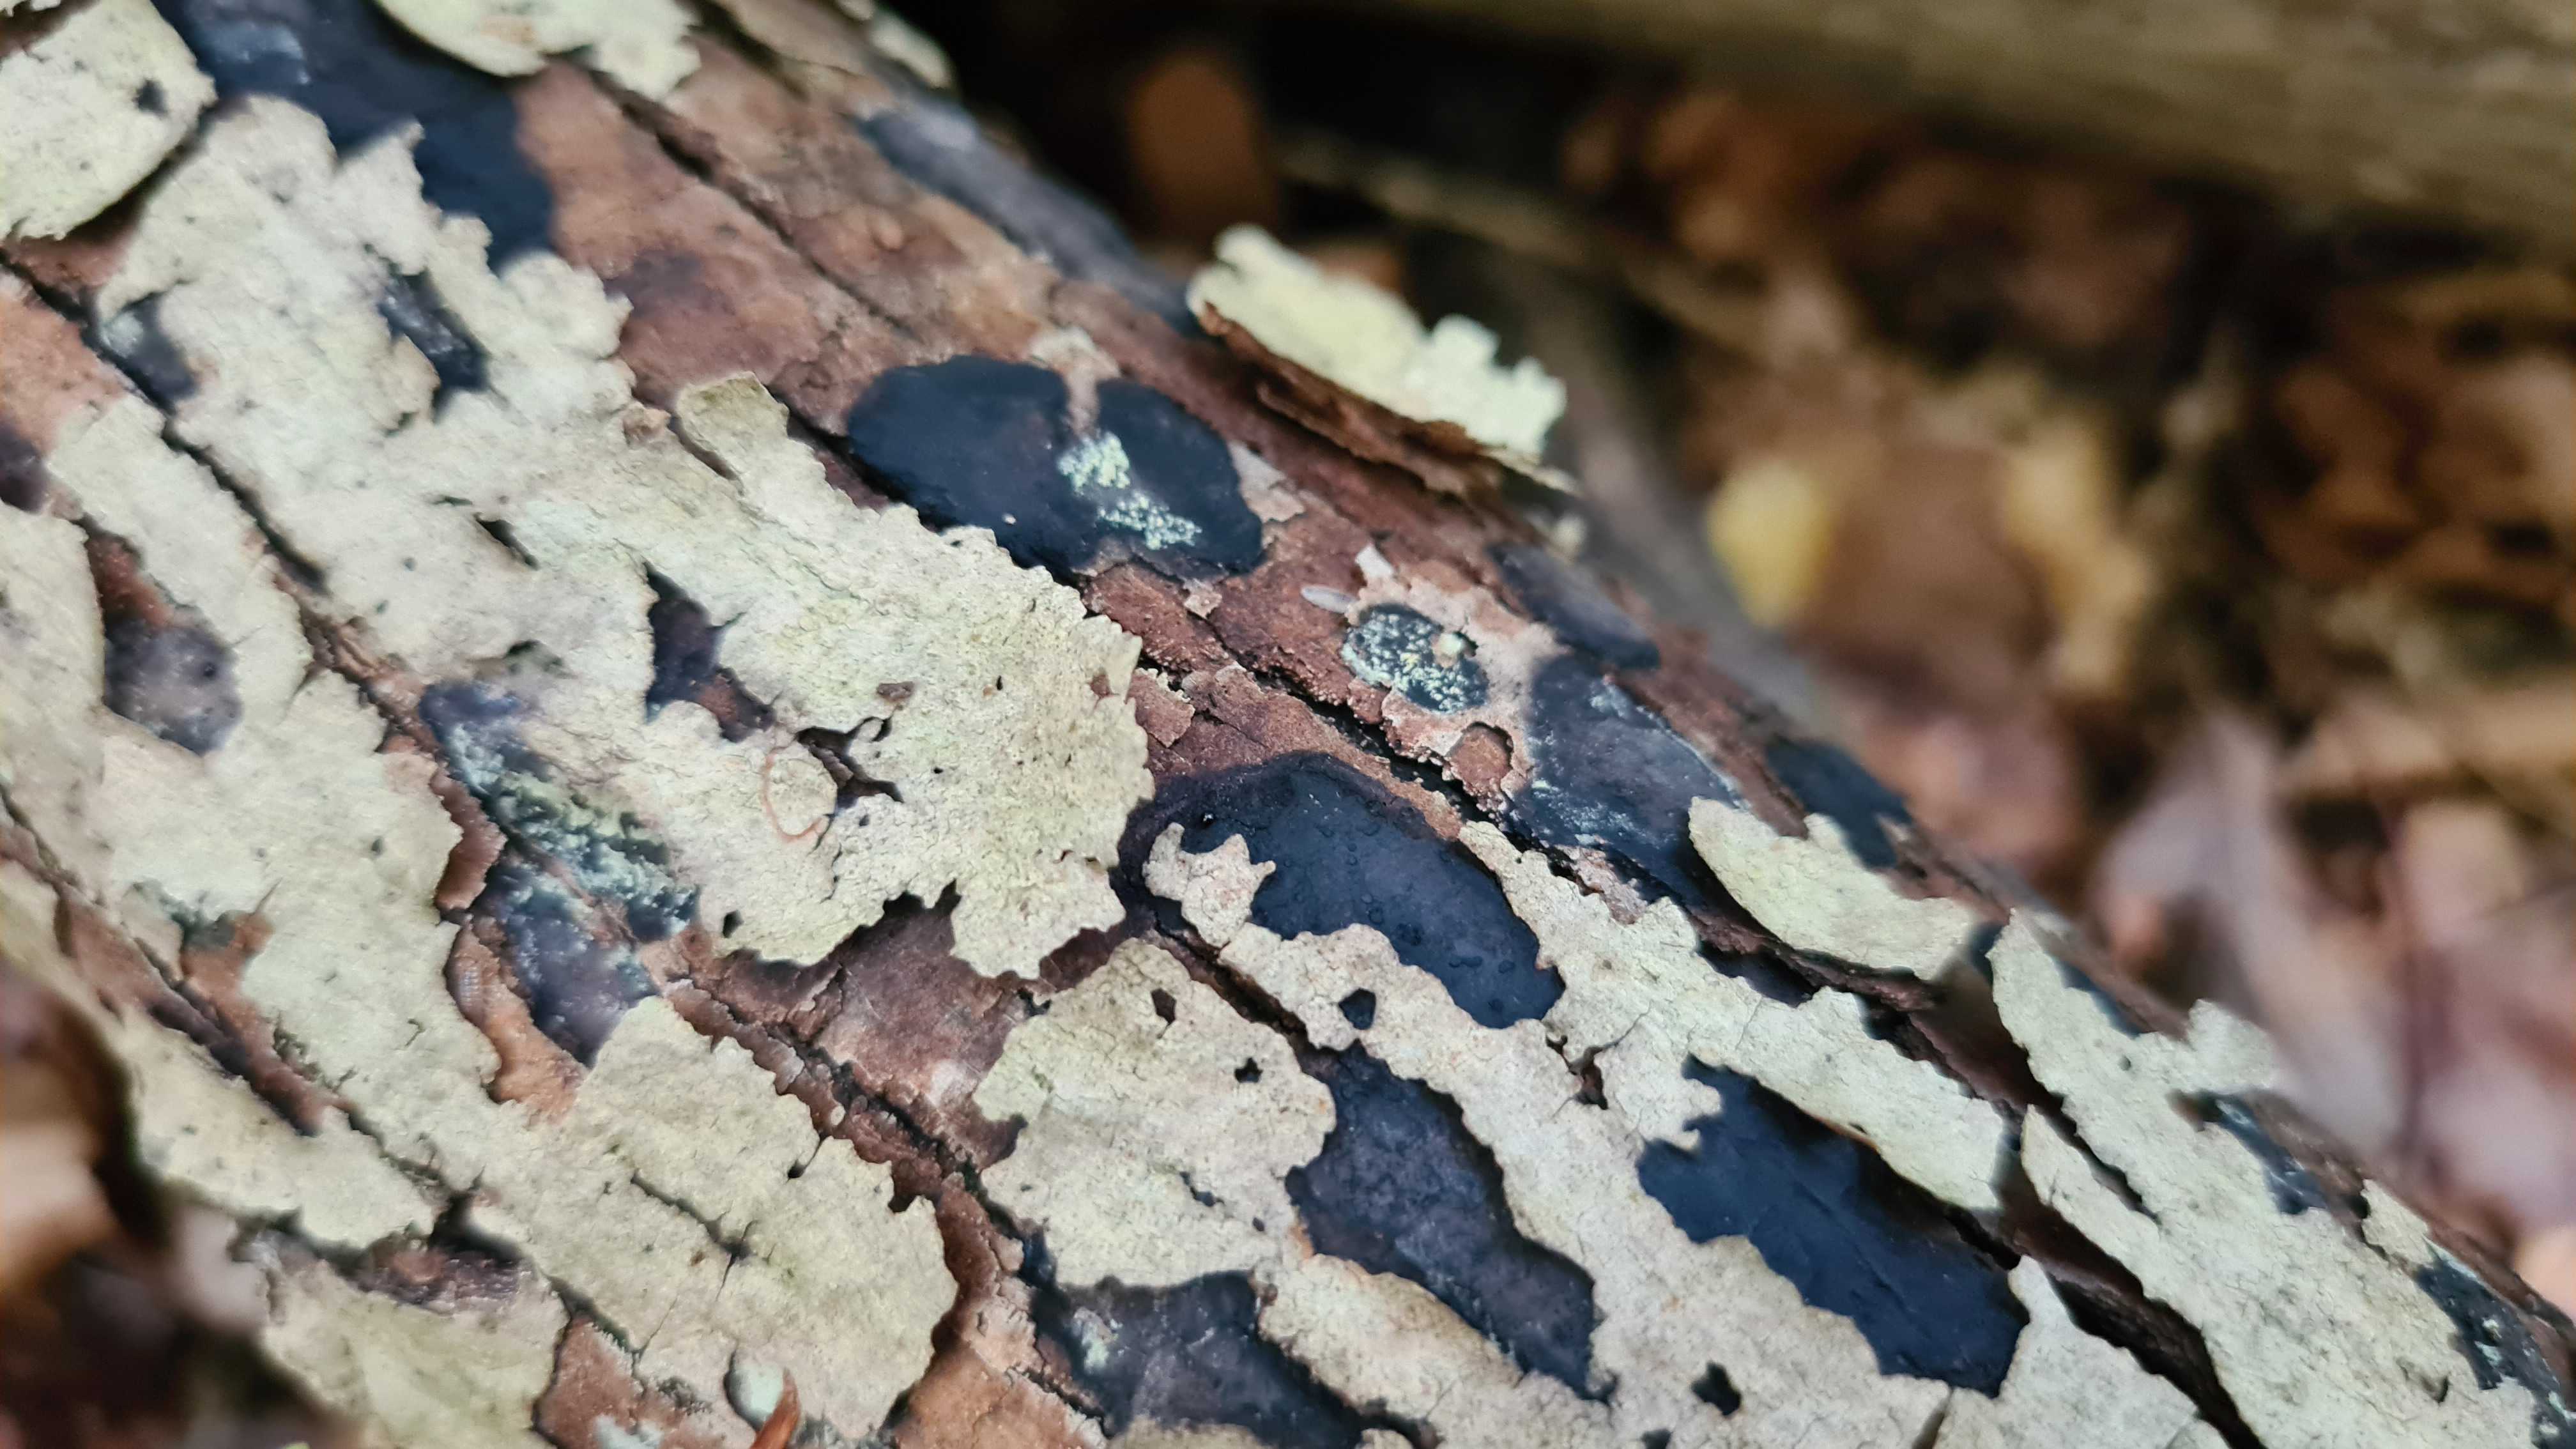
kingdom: Fungi
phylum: Ascomycota
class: Sordariomycetes
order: Xylariales
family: Hypoxylaceae
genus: Hypoxylon
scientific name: Hypoxylon petriniae
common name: nedsænket kulbær
